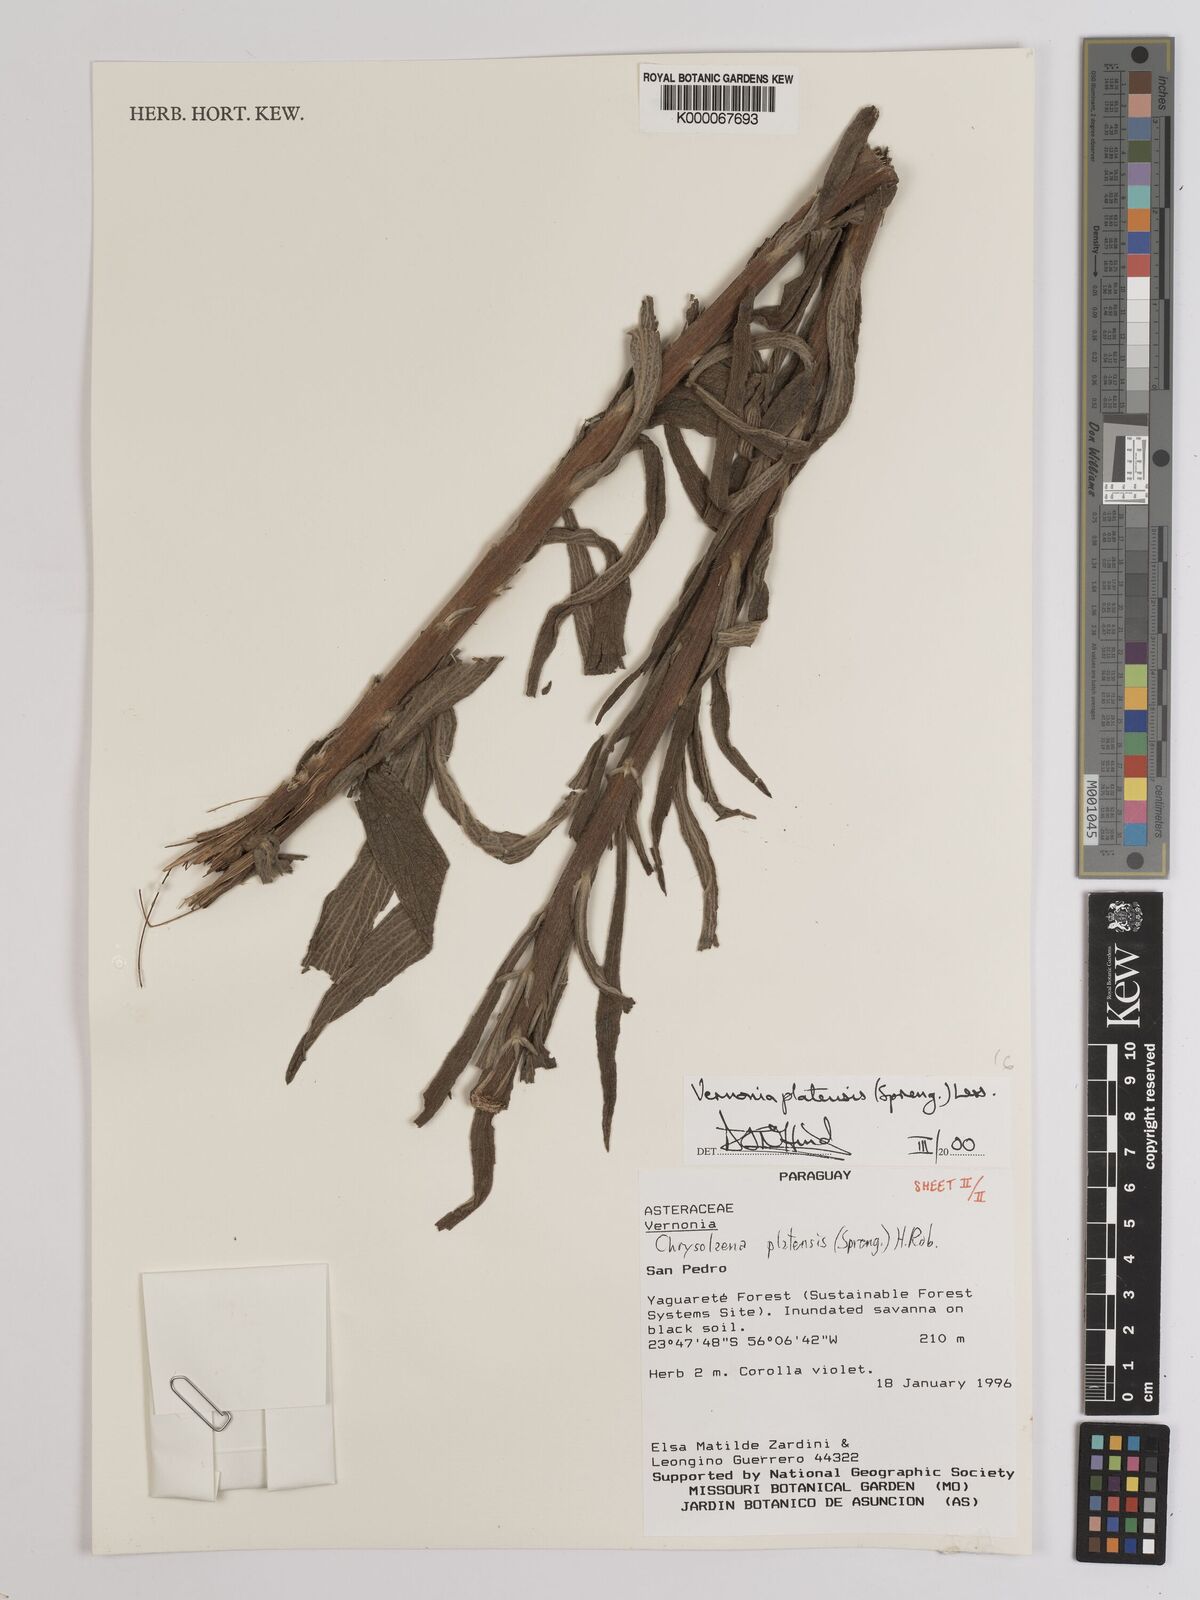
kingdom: Plantae
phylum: Tracheophyta
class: Magnoliopsida
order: Asterales
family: Asteraceae
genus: Chrysolaena
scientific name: Chrysolaena platensis
